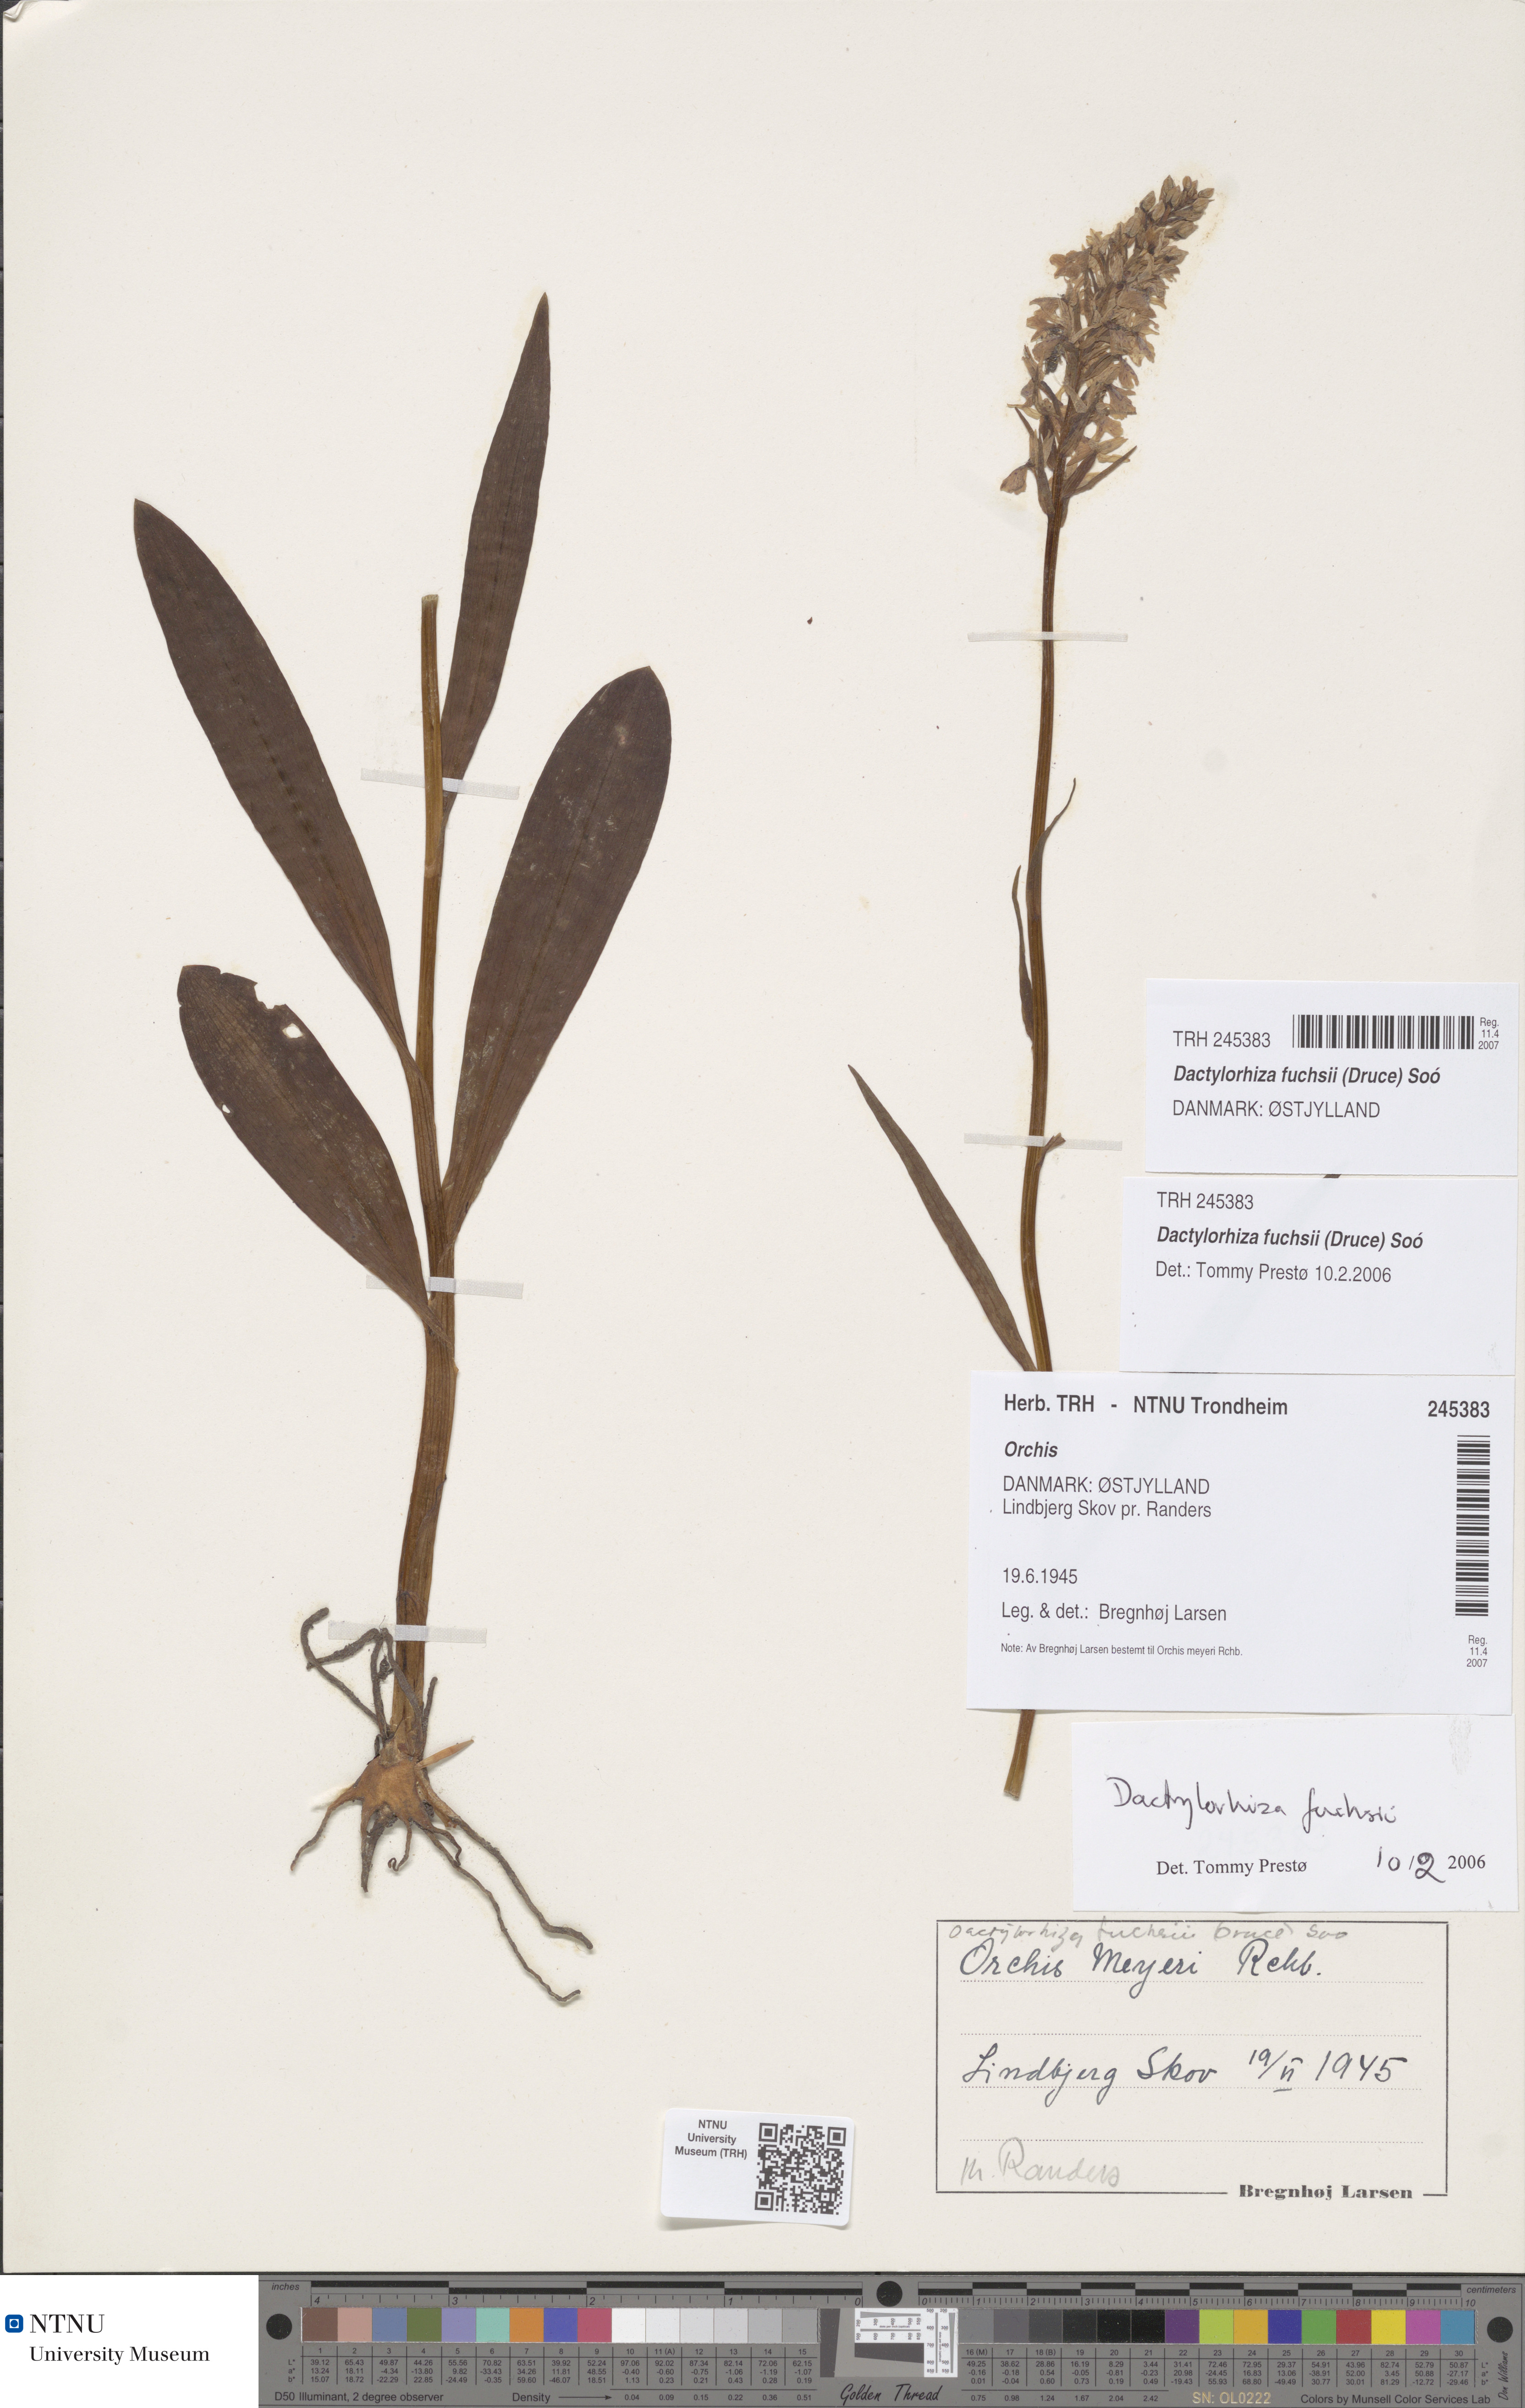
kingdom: Plantae
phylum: Tracheophyta
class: Liliopsida
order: Asparagales
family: Orchidaceae
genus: Dactylorhiza
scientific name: Dactylorhiza maculata
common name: Heath spotted-orchid
